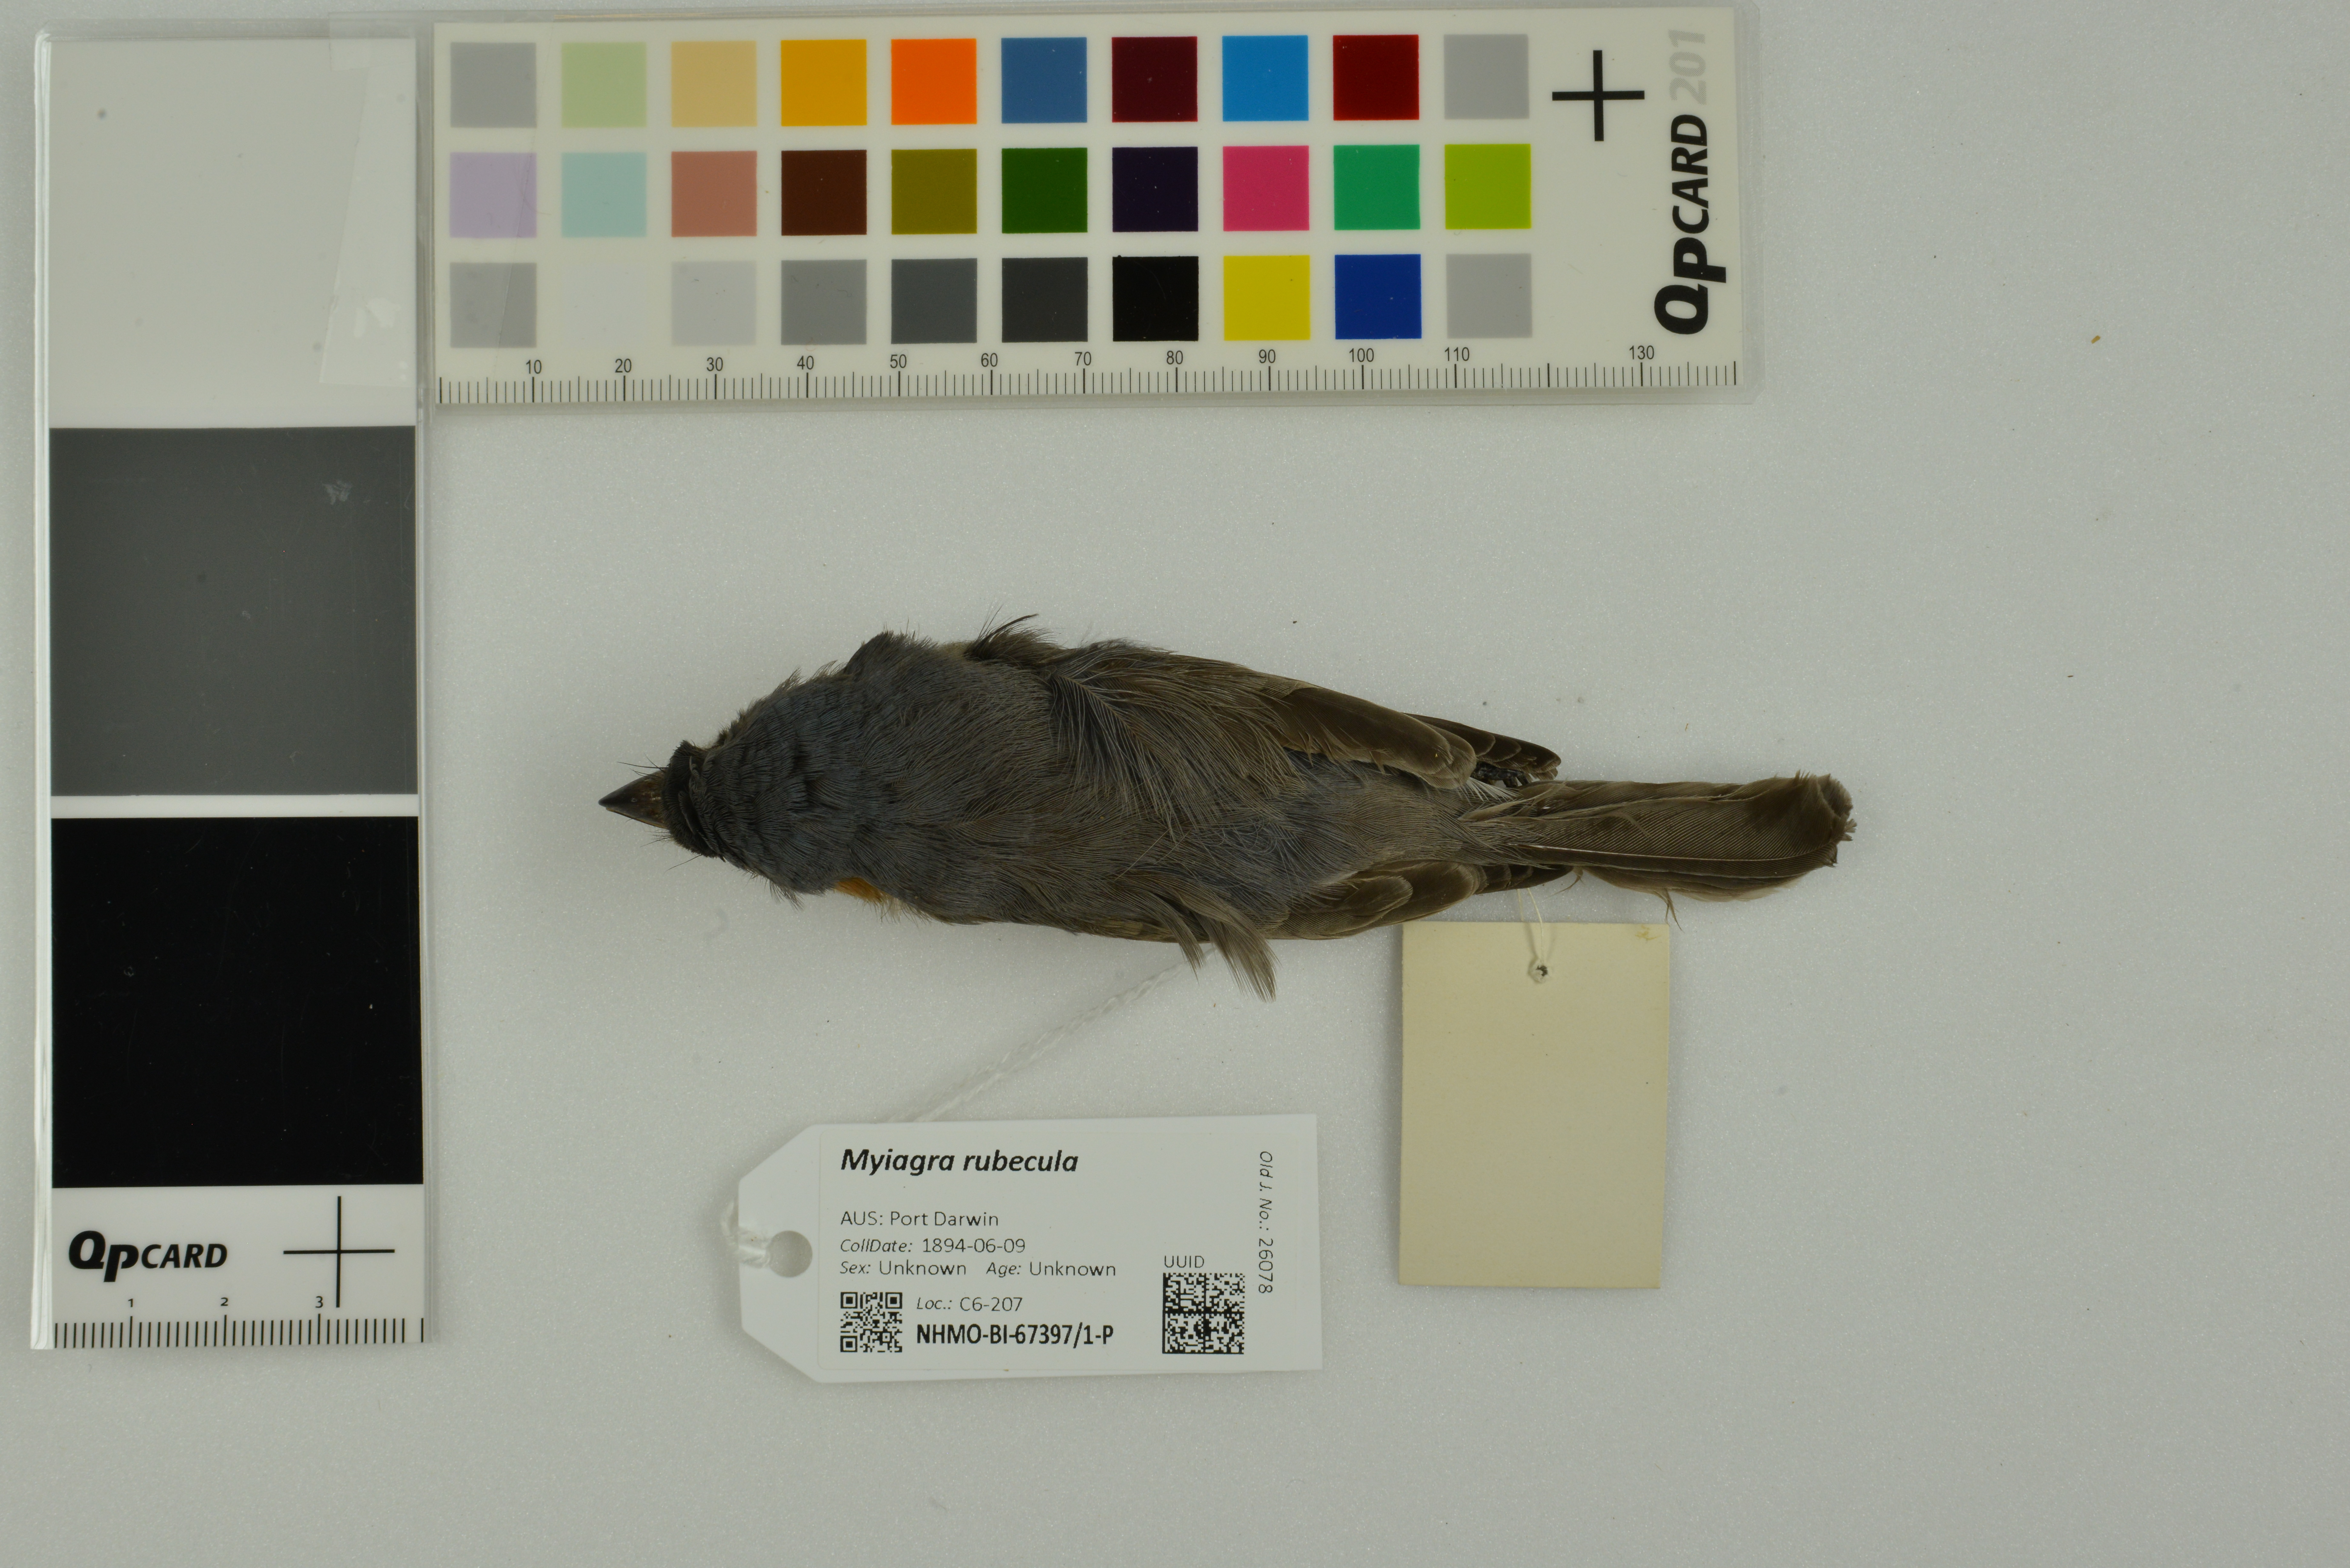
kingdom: Animalia
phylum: Chordata
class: Aves
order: Passeriformes
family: Monarchidae
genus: Myiagra
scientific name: Myiagra rubecula
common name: Leaden flycatcher
